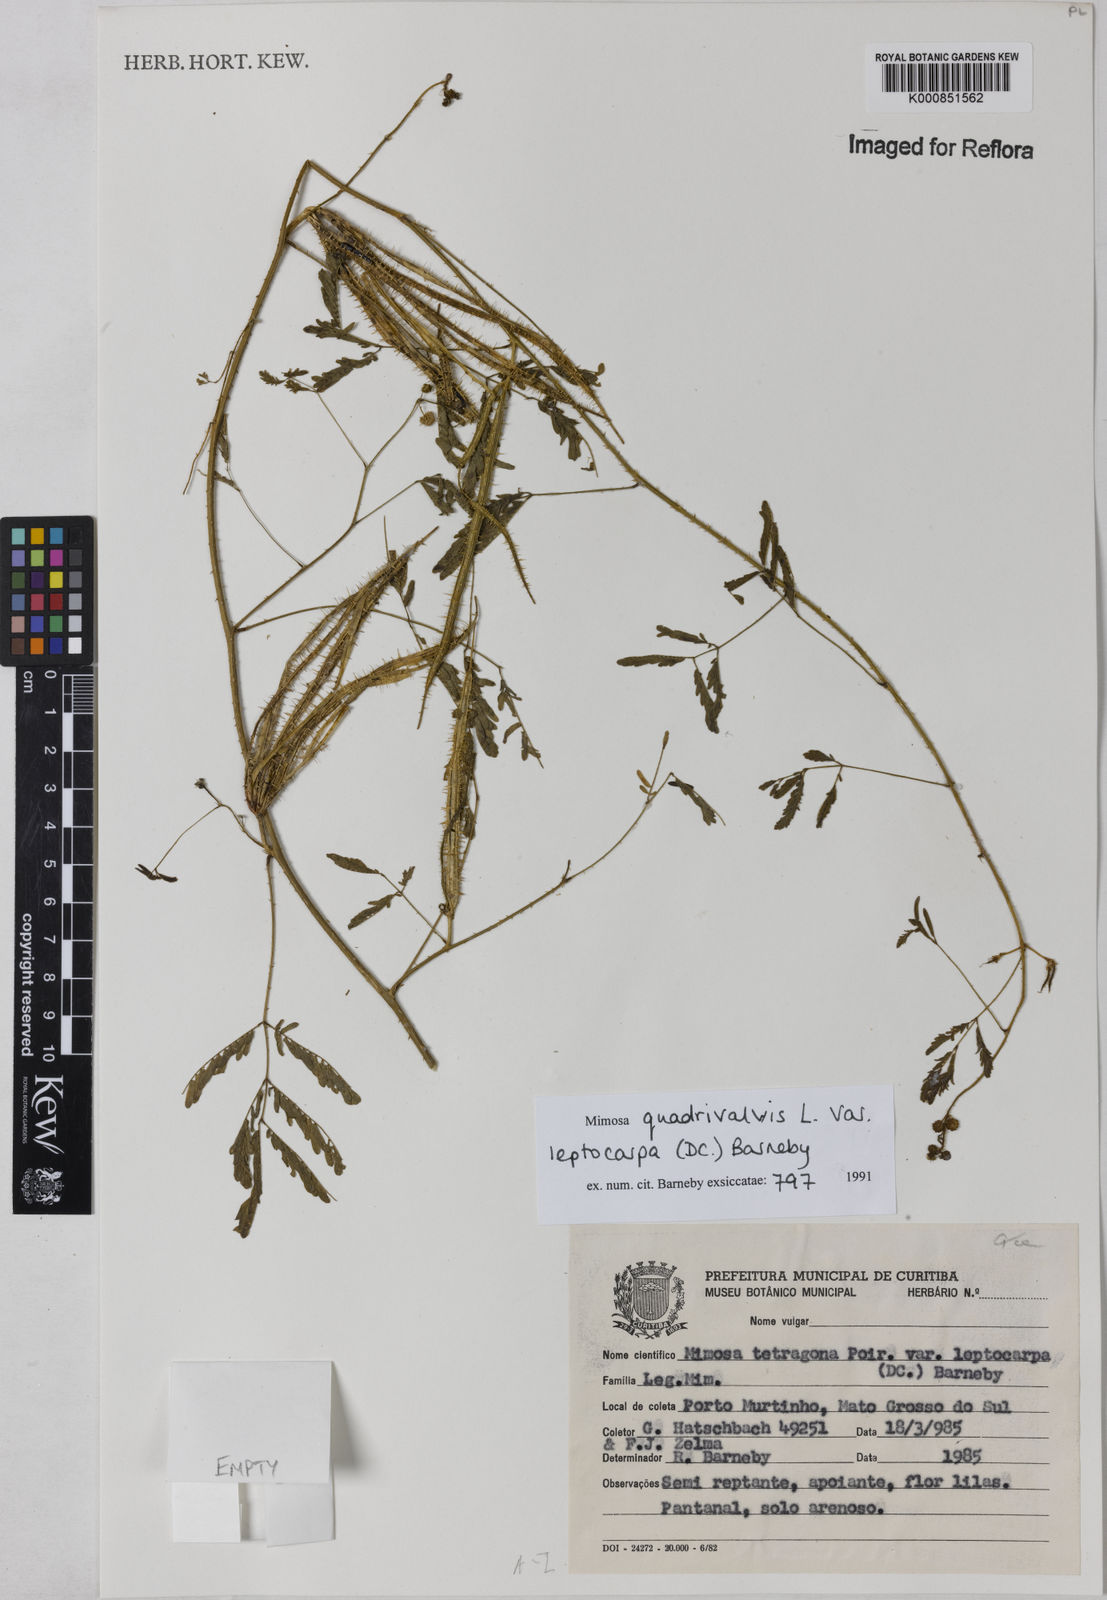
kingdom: Plantae
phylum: Tracheophyta
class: Magnoliopsida
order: Fabales
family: Fabaceae
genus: Mimosa
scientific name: Mimosa candollei
